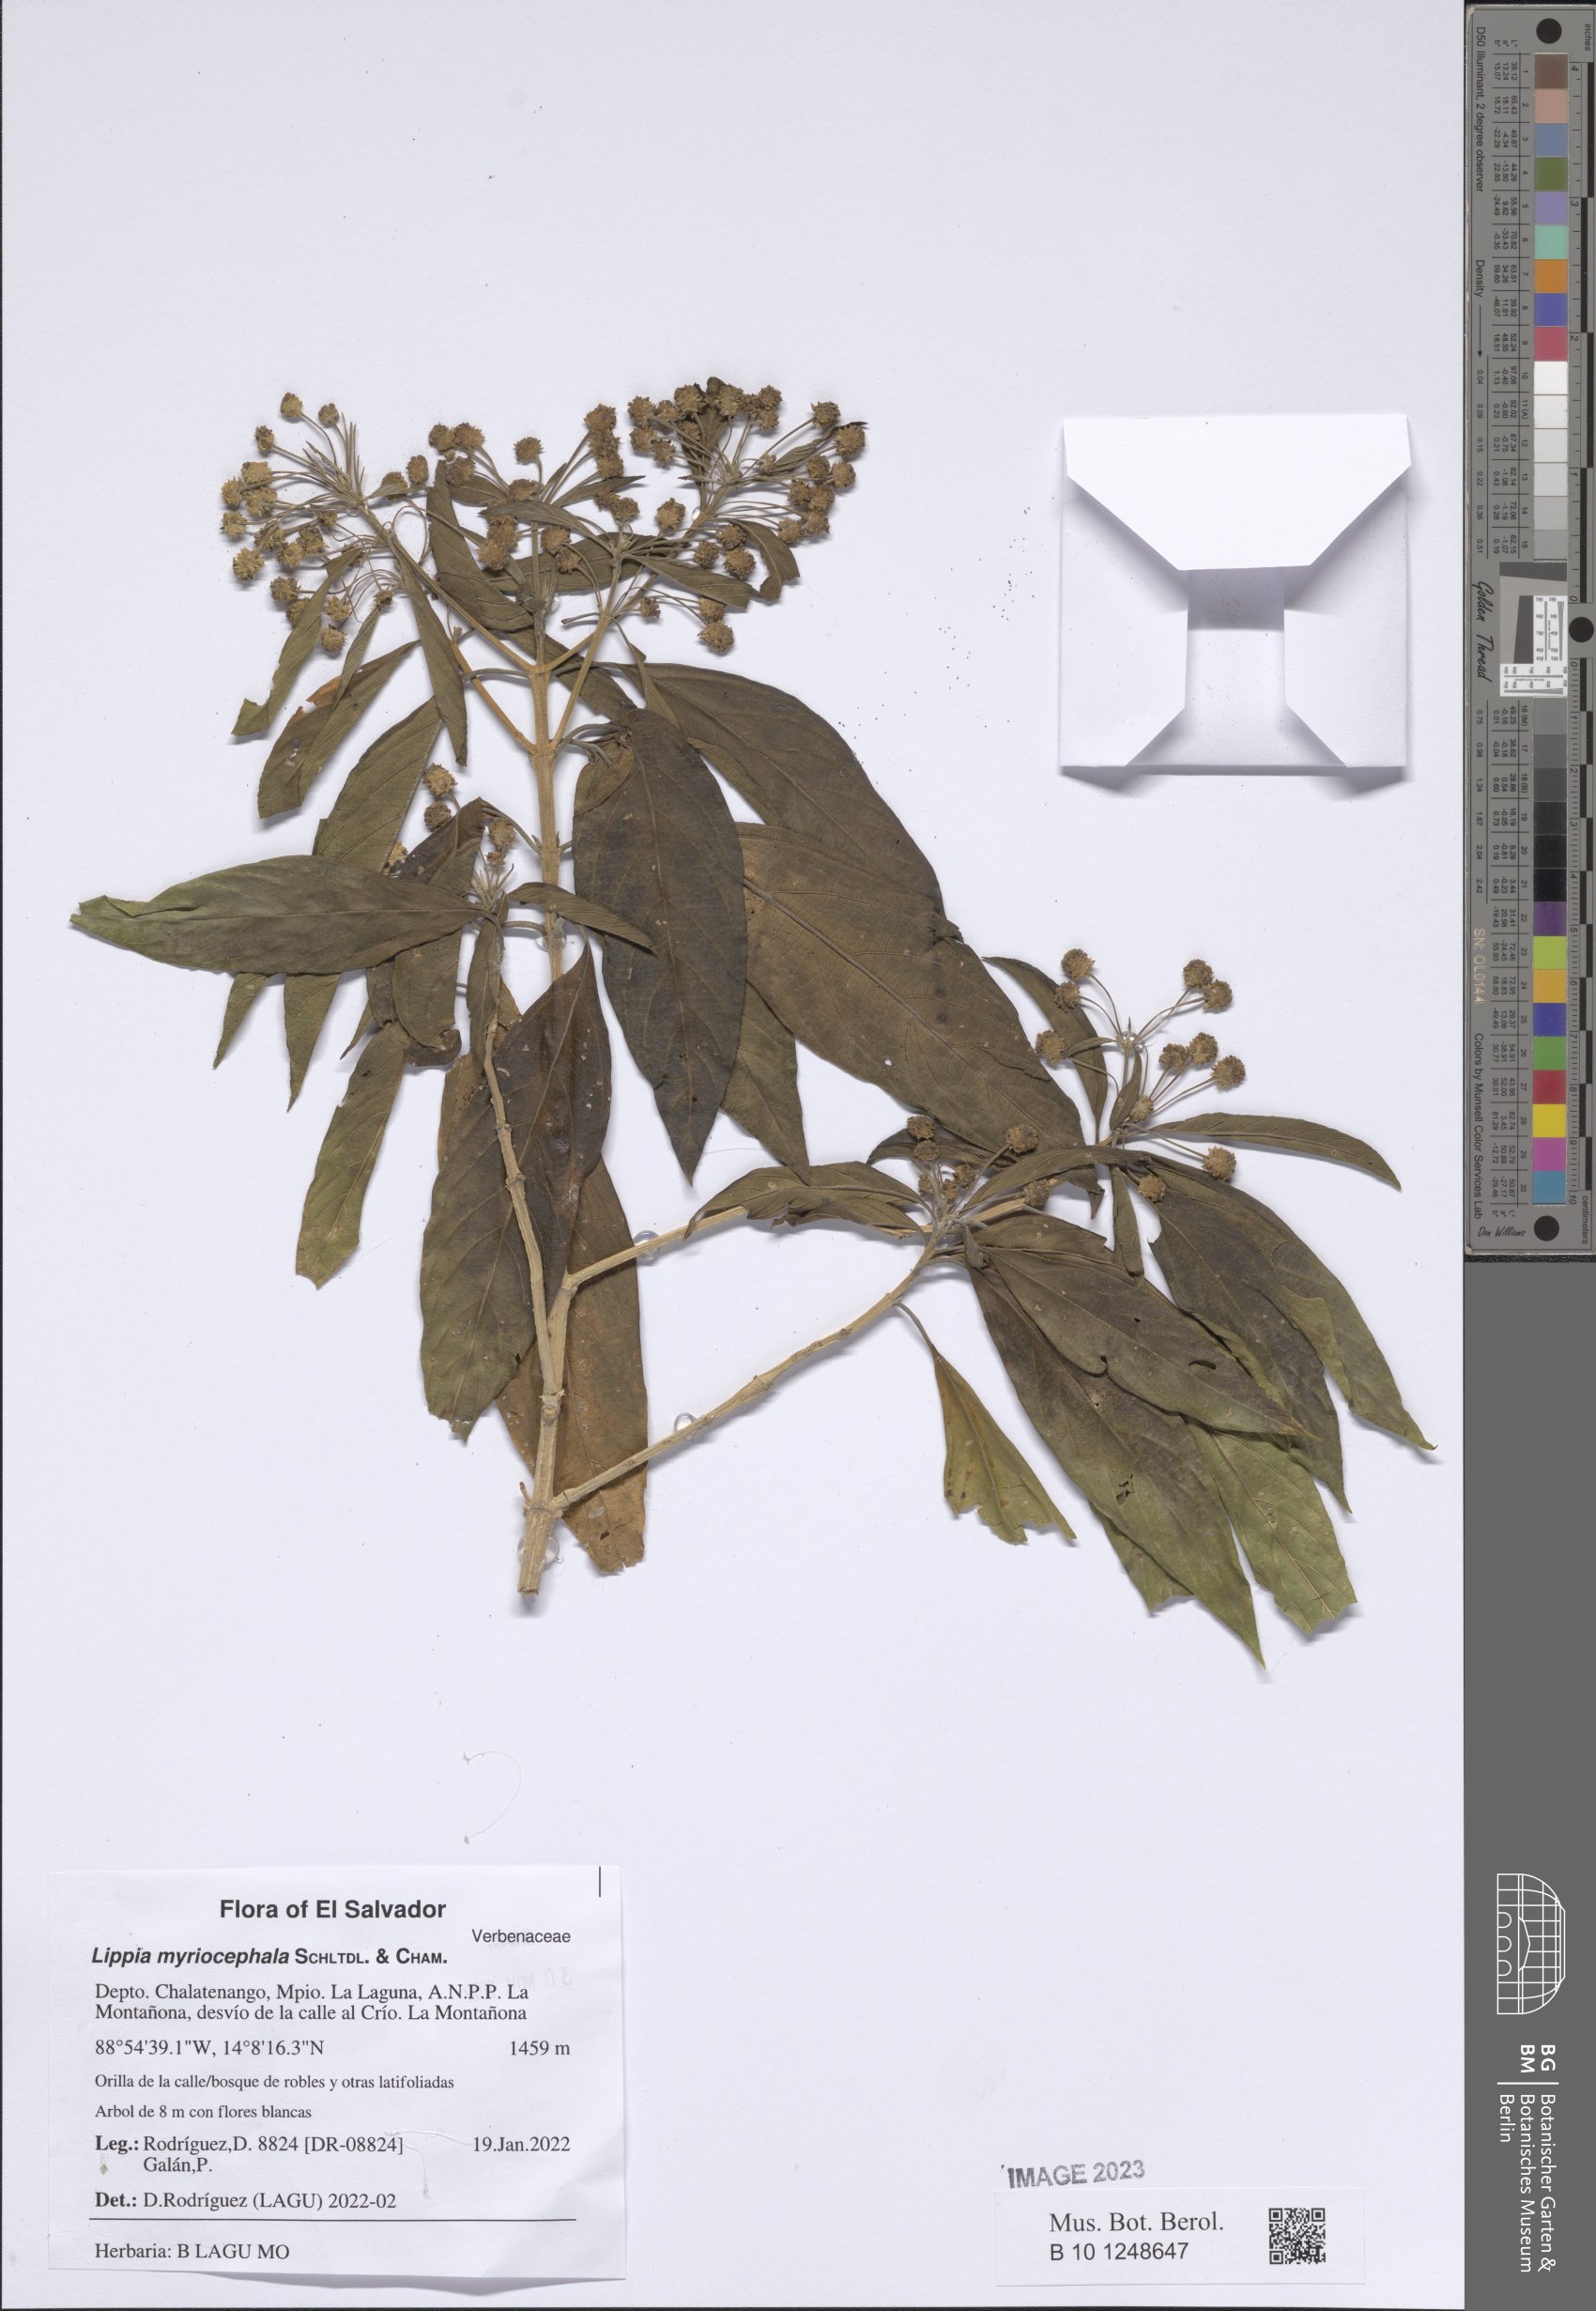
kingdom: Plantae
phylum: Tracheophyta
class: Magnoliopsida
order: Lamiales
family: Verbenaceae
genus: Lippia
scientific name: Lippia myriocephala
